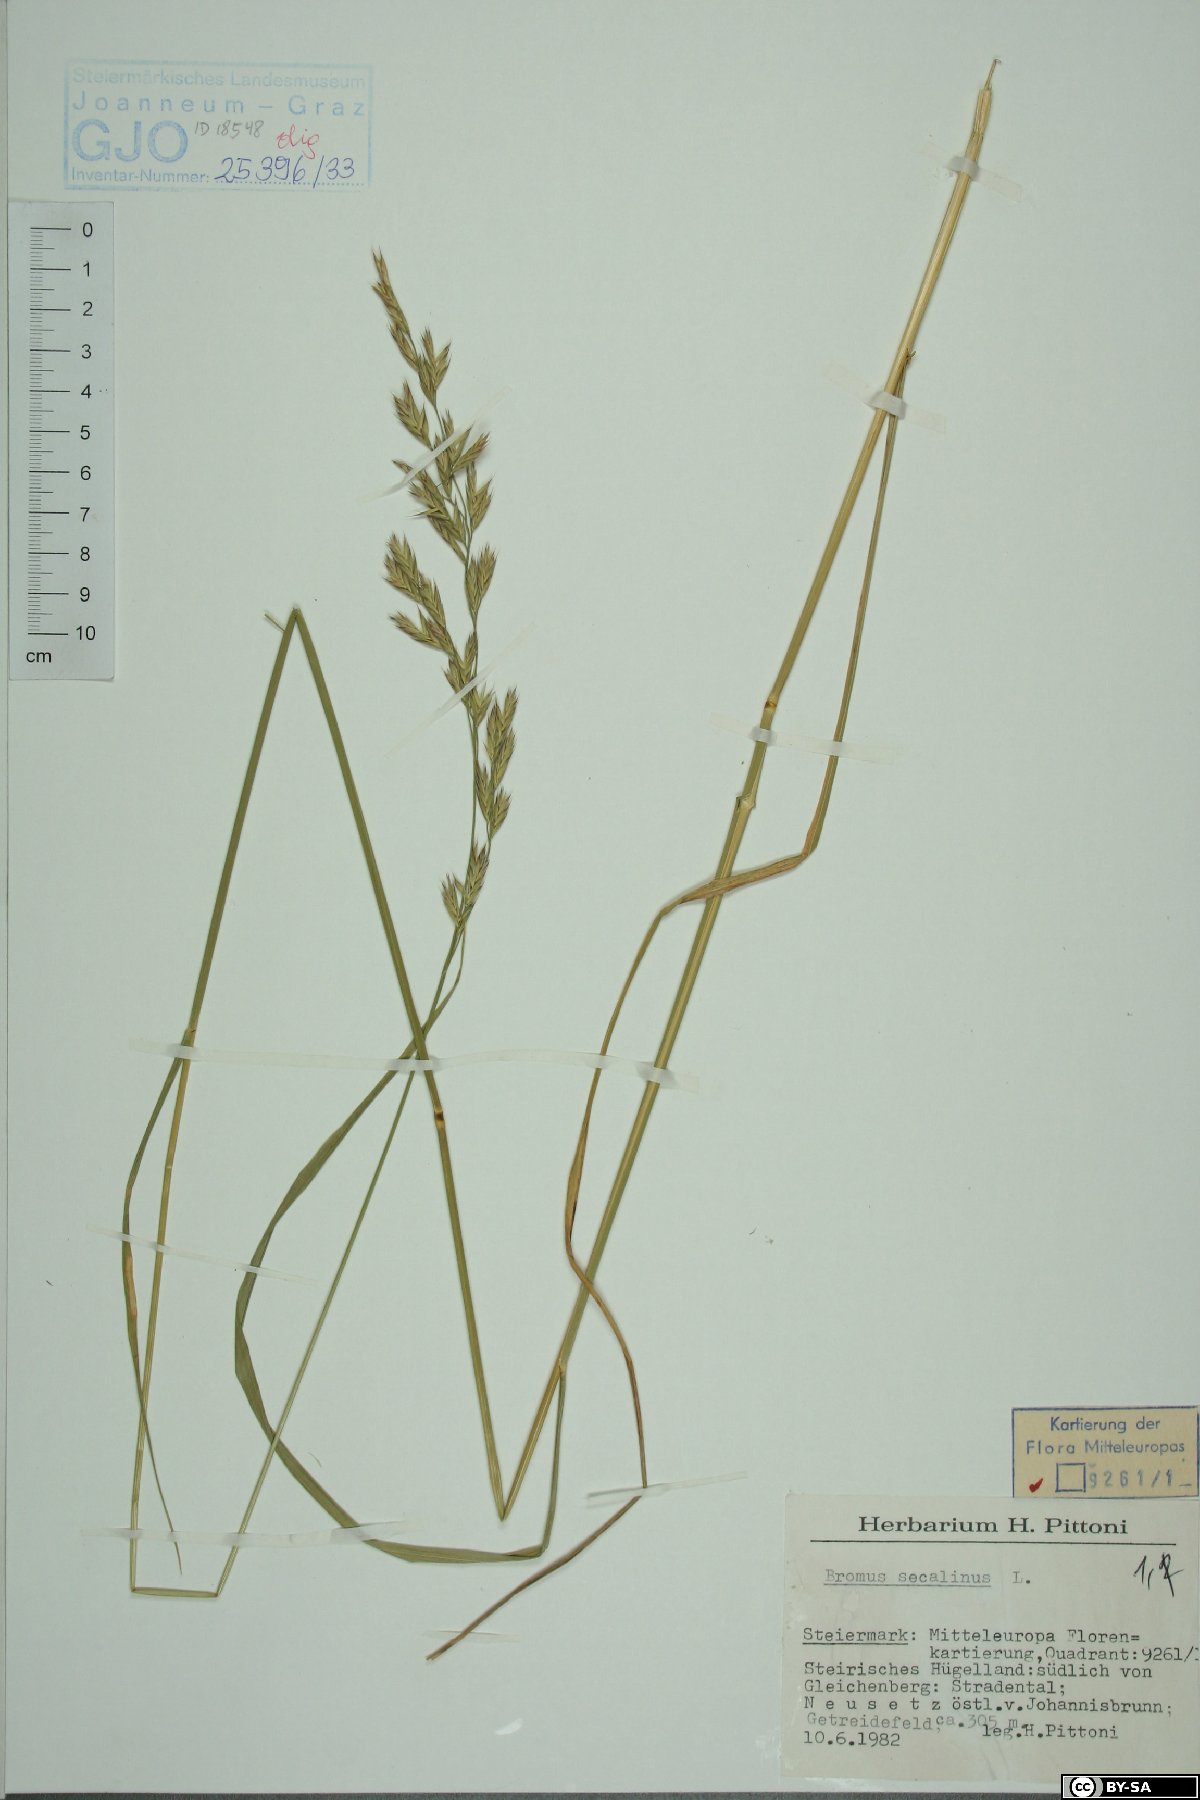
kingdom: Plantae
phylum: Tracheophyta
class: Liliopsida
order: Poales
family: Poaceae
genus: Bromus
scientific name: Bromus secalinus
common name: Rye brome
